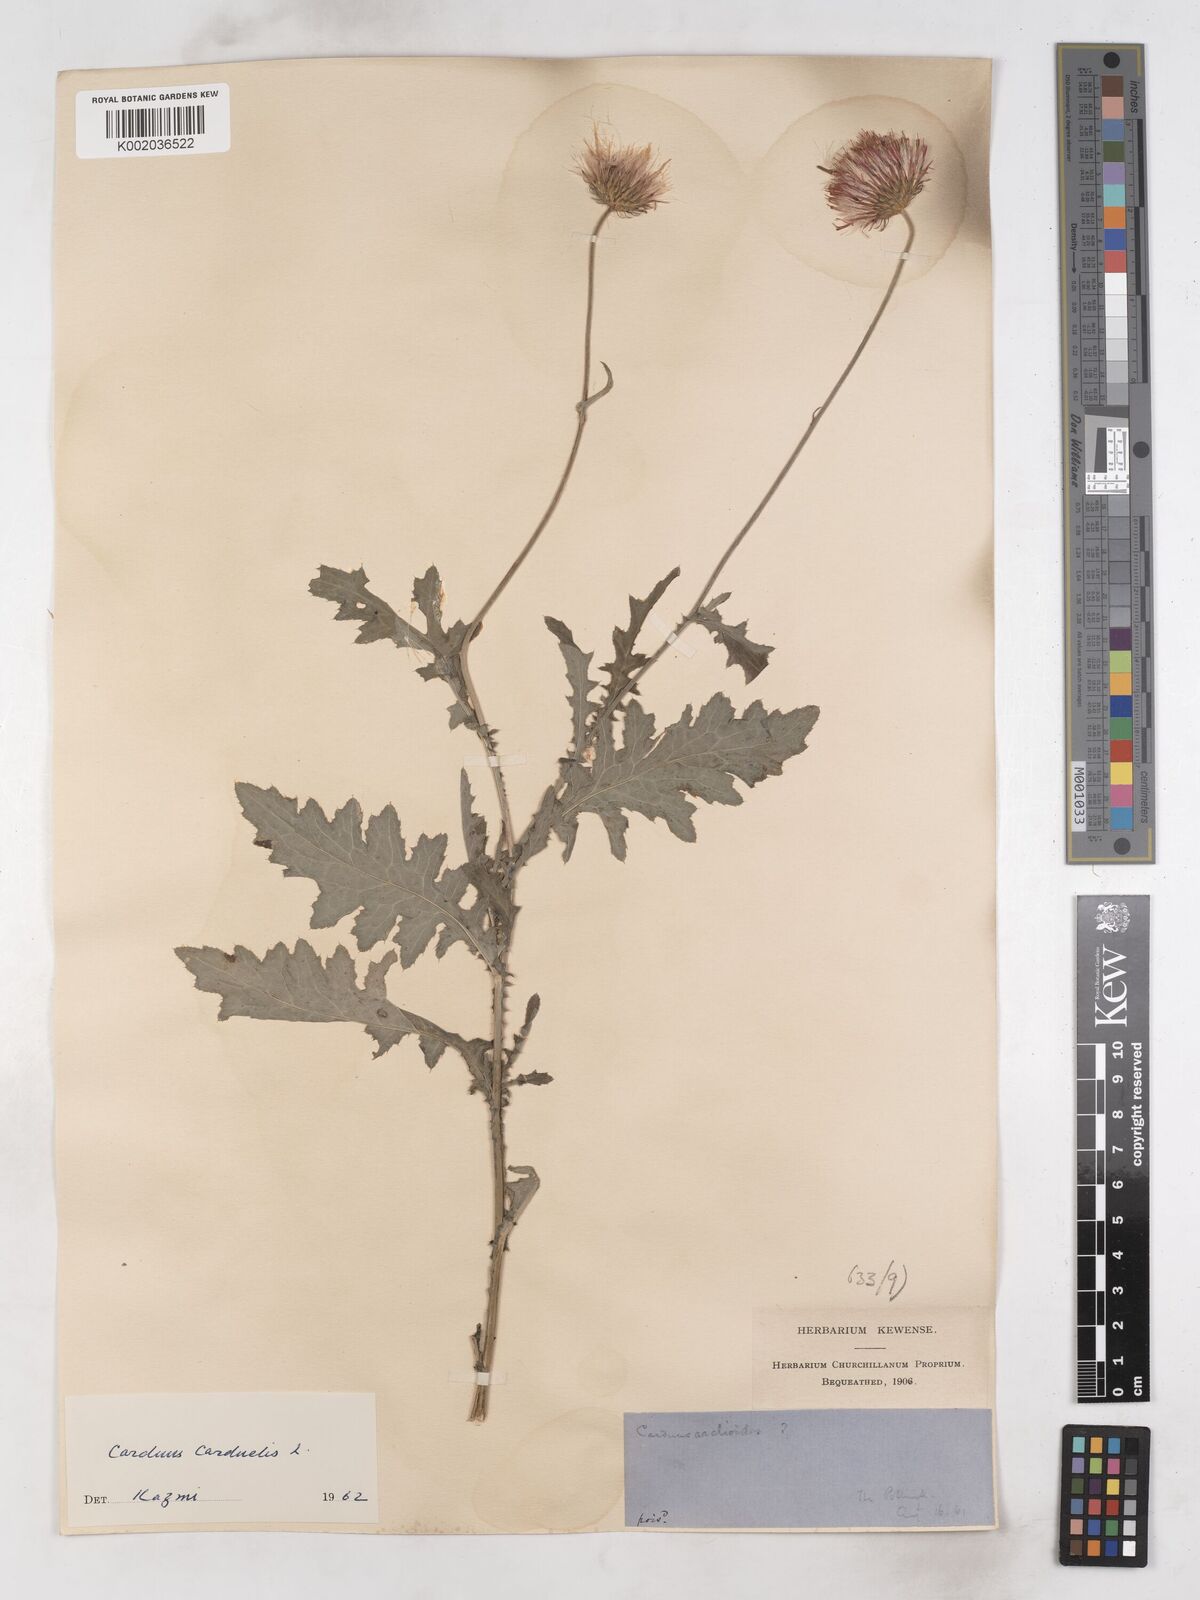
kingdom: Plantae
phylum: Tracheophyta
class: Magnoliopsida
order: Asterales
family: Asteraceae
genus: Carduus
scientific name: Carduus carduelis
